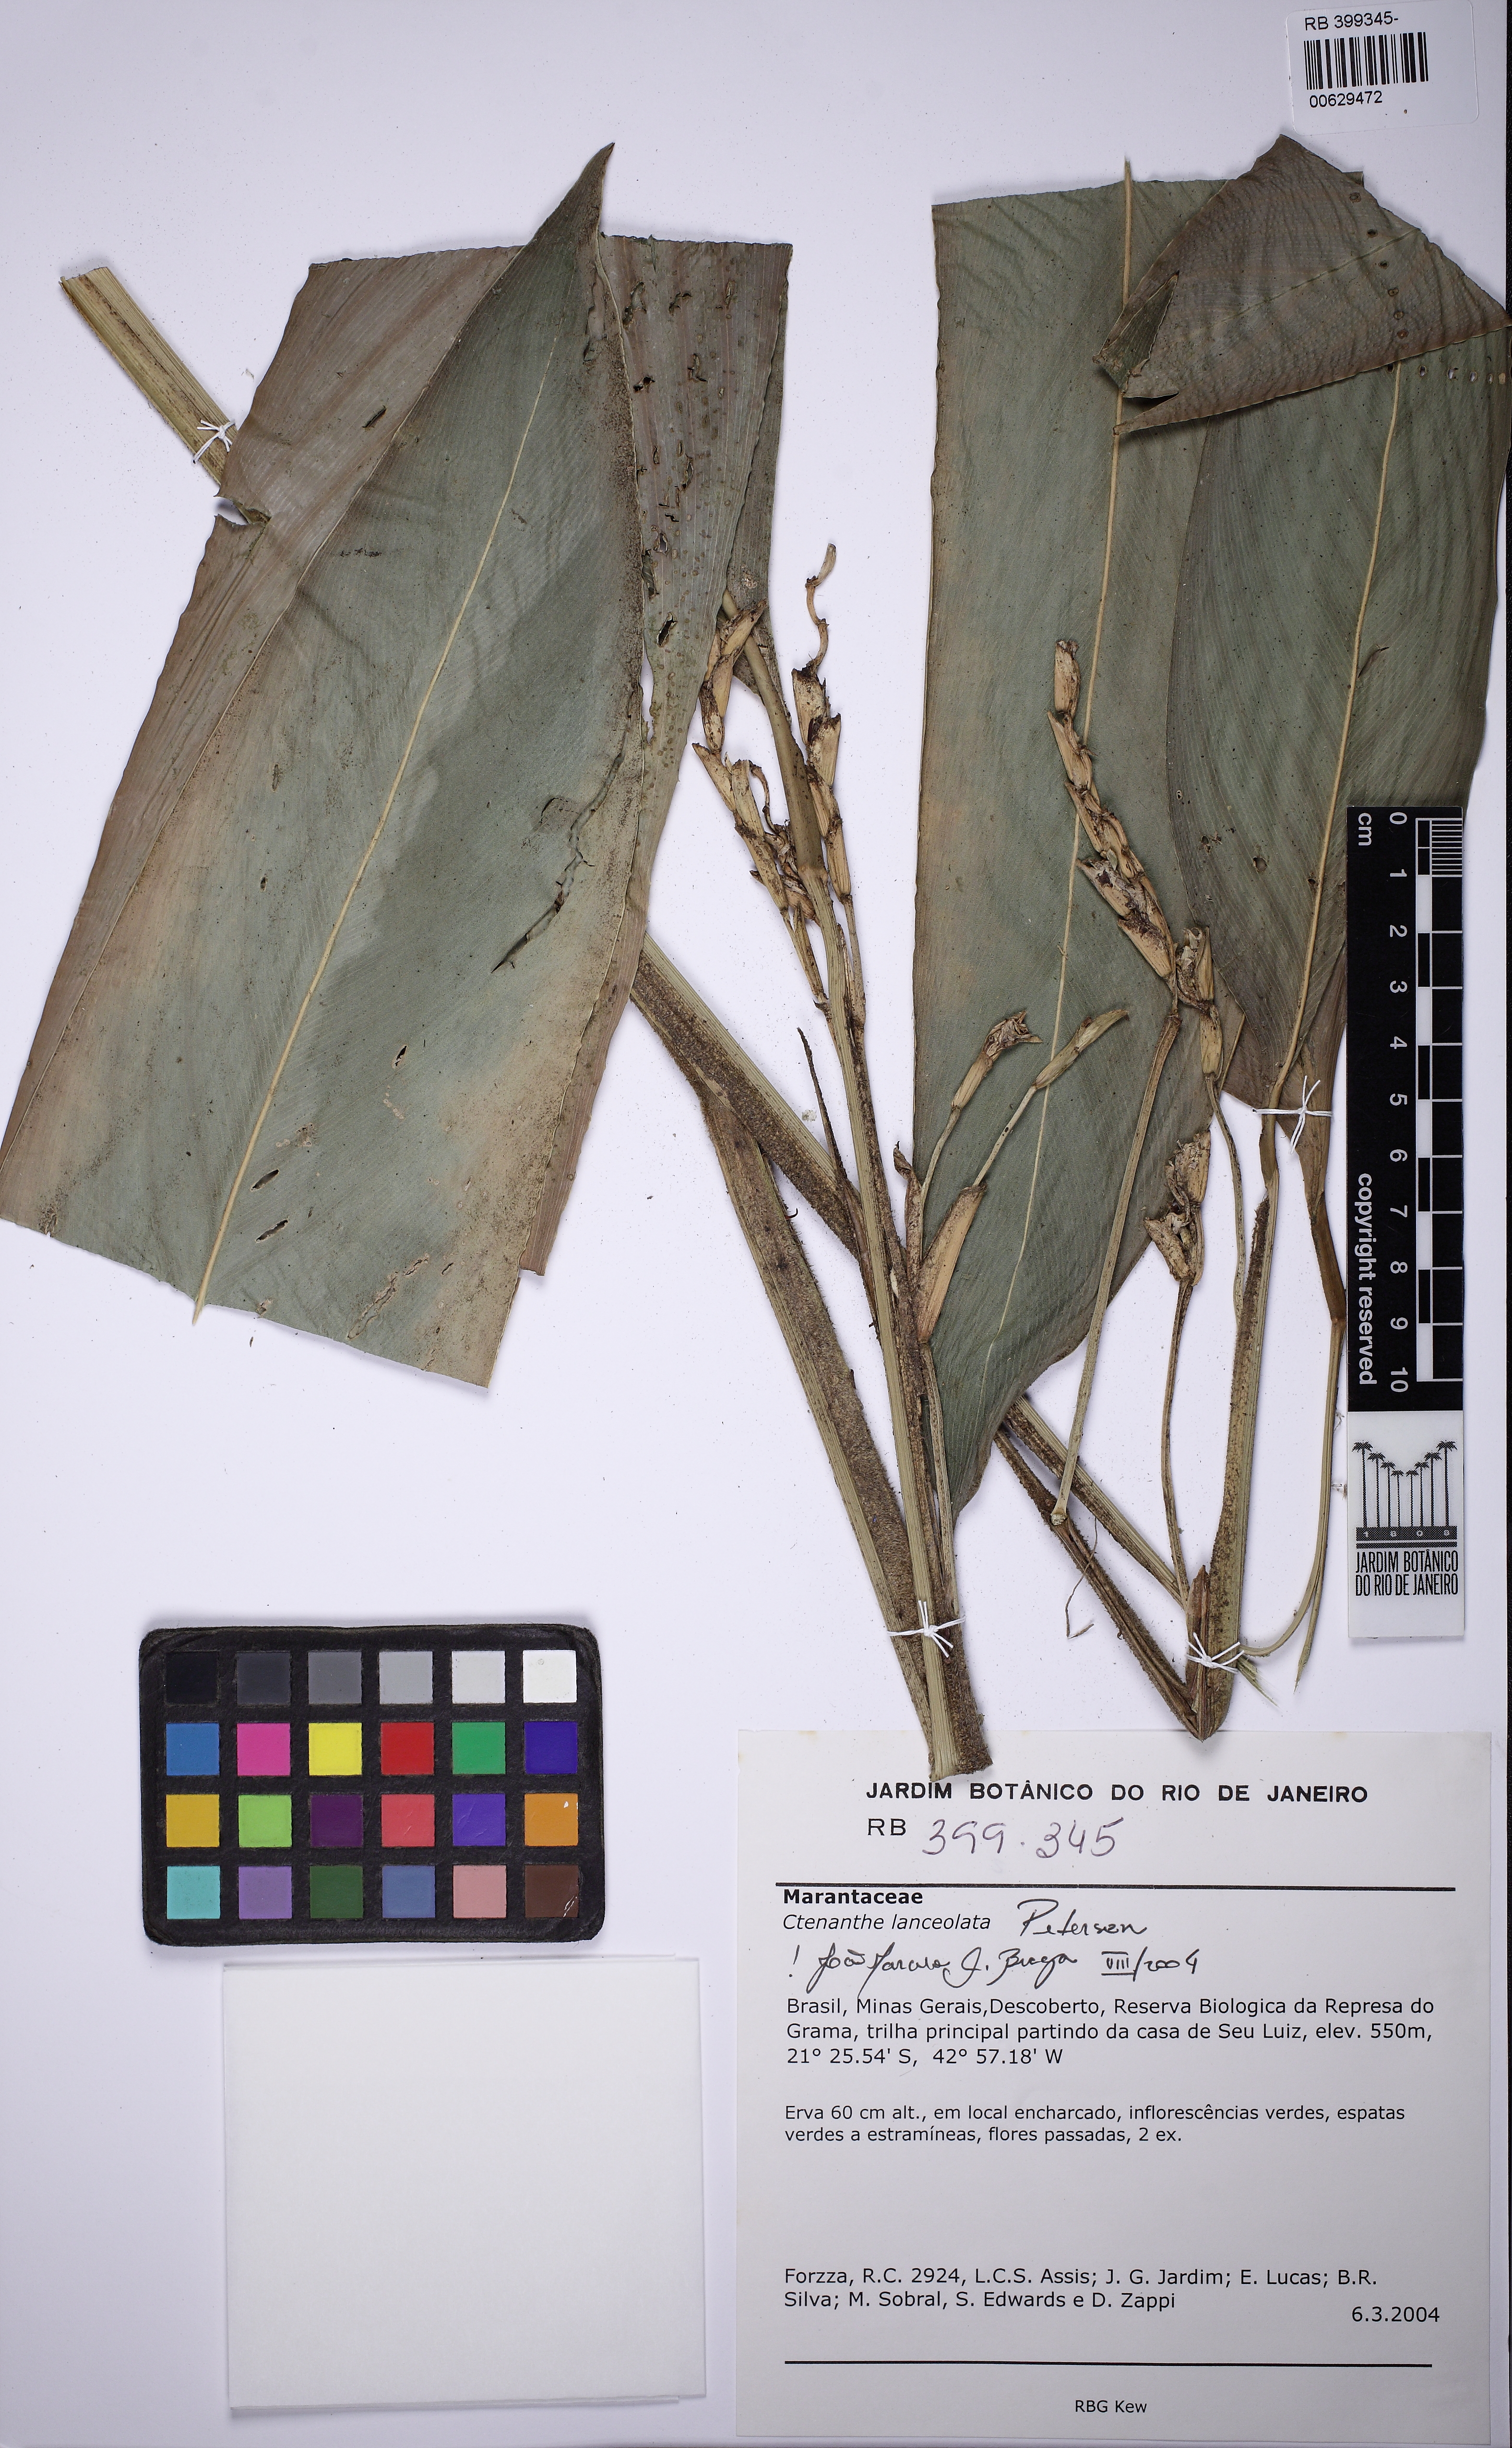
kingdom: Plantae
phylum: Tracheophyta
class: Liliopsida
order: Zingiberales
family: Marantaceae
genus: Ctenanthe
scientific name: Ctenanthe lanceolata
